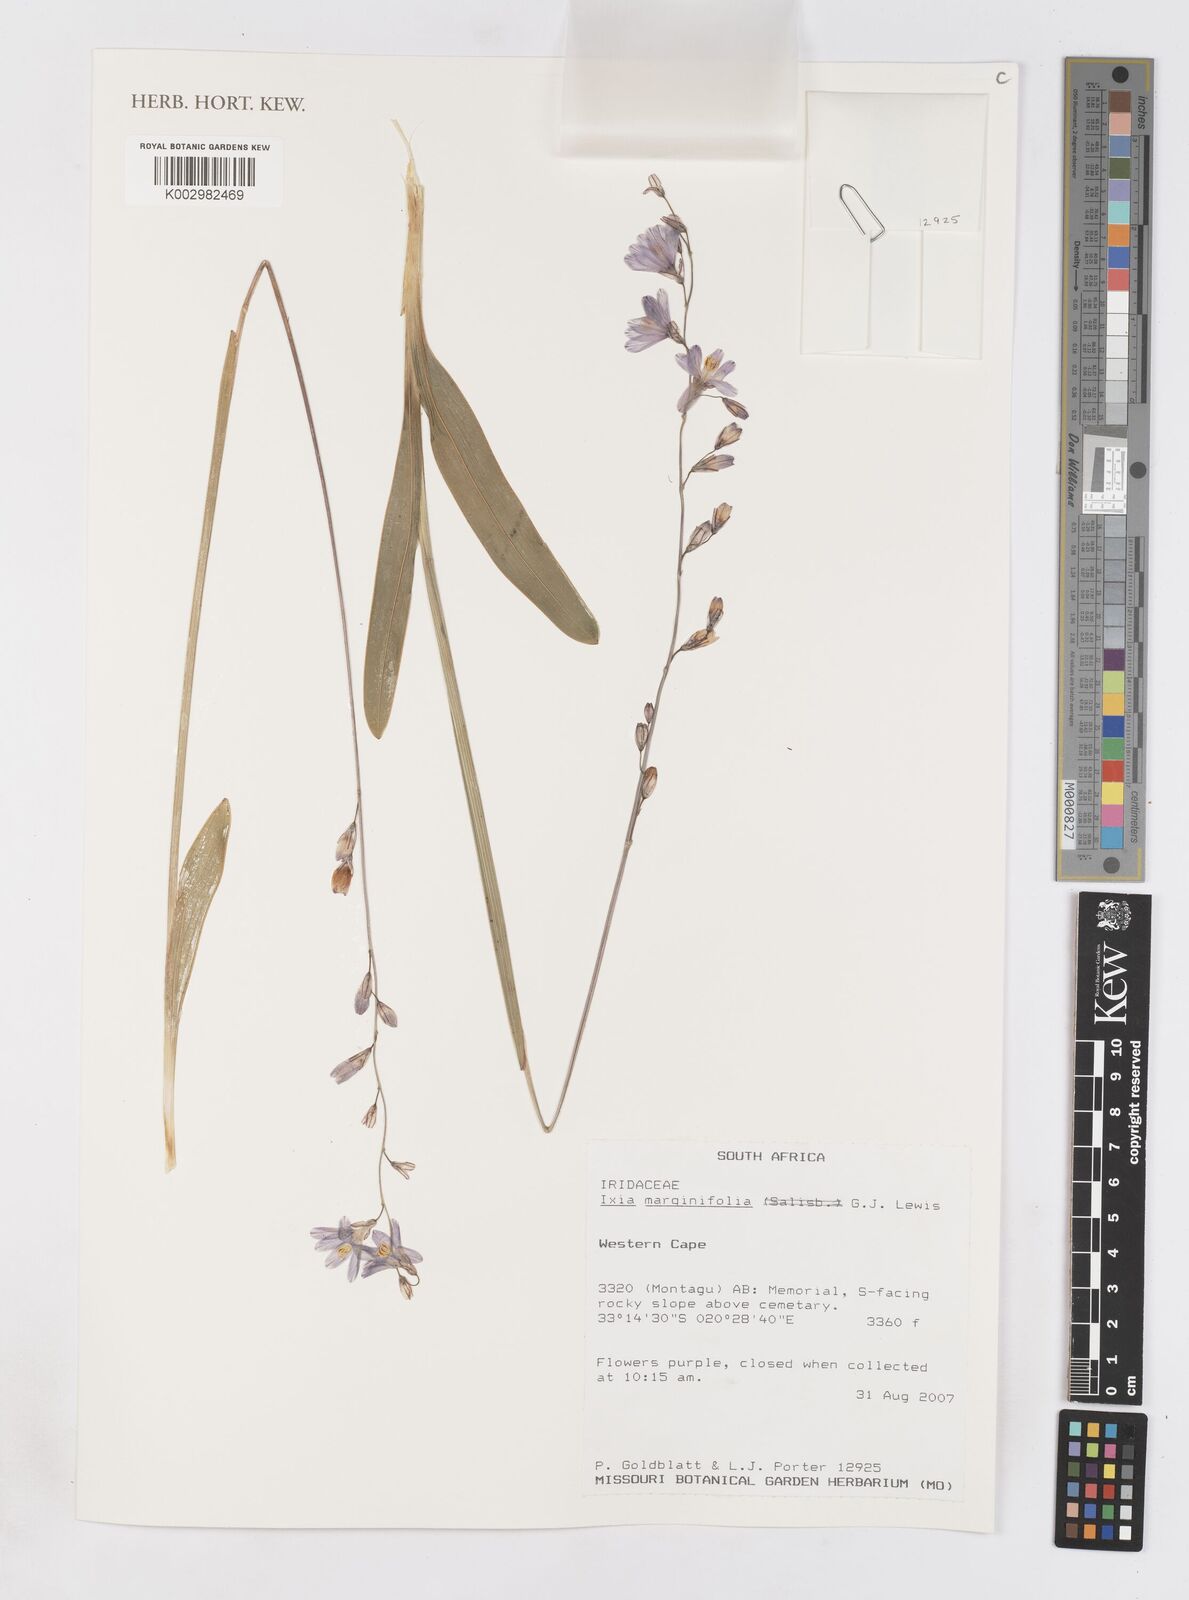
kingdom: Plantae
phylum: Tracheophyta
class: Liliopsida
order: Asparagales
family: Iridaceae
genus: Ixia
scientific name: Ixia marginifolia
